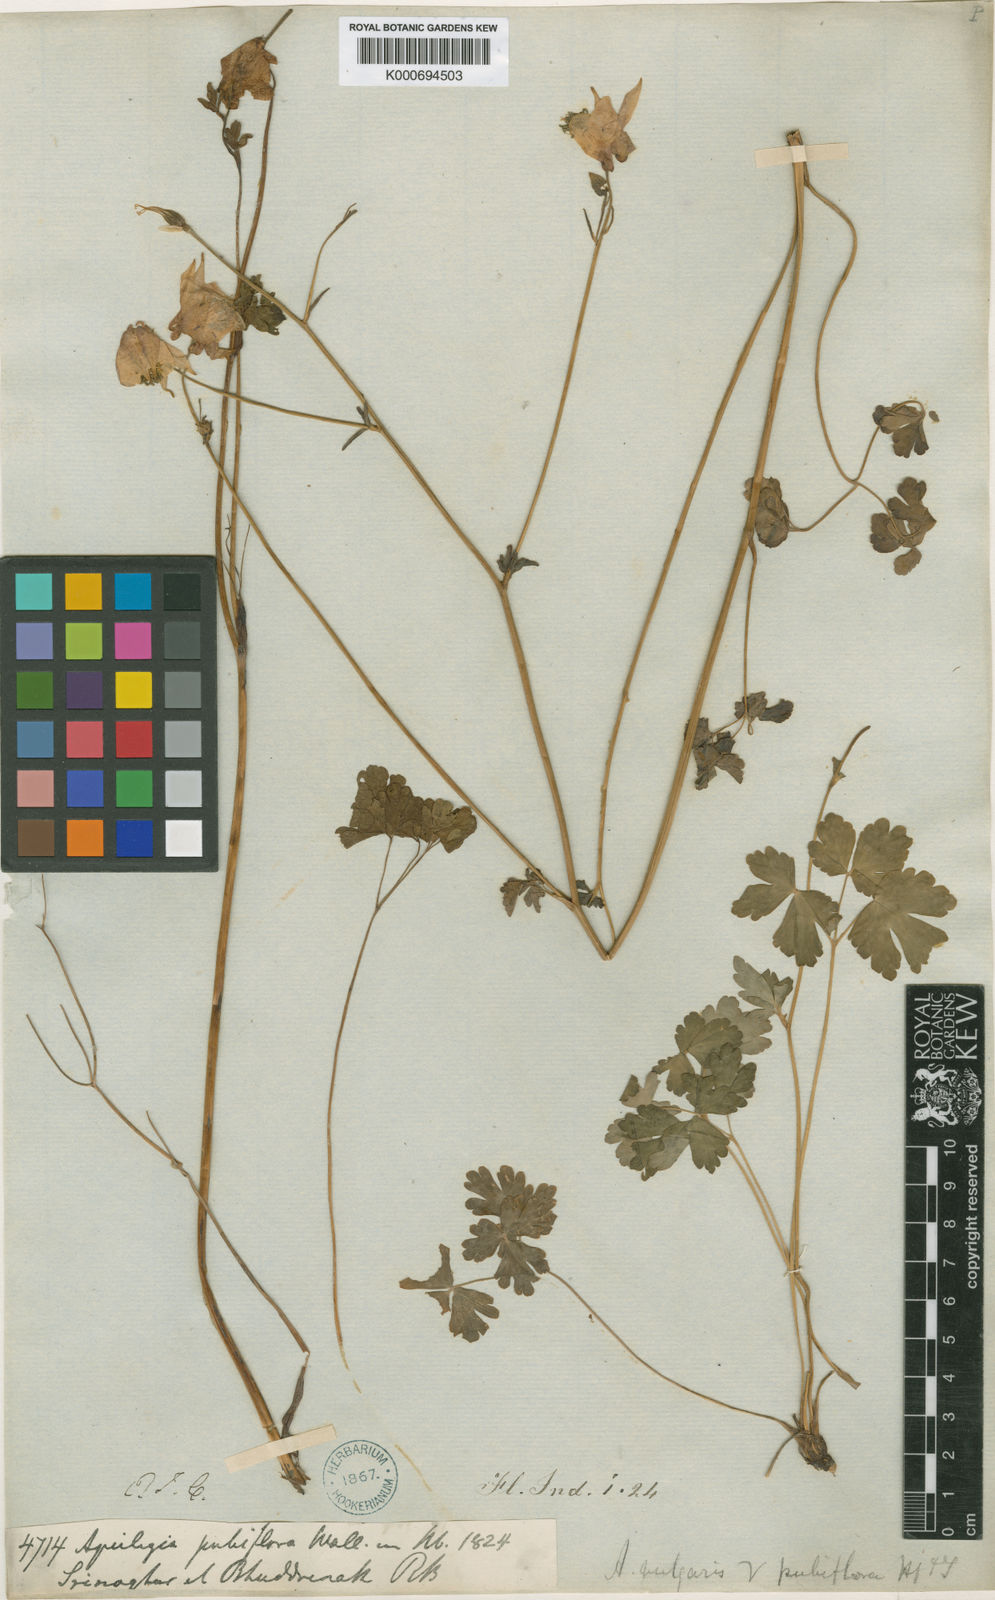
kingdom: Plantae
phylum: Tracheophyta
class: Magnoliopsida
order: Ranunculales
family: Ranunculaceae
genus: Aquilegia
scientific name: Aquilegia
